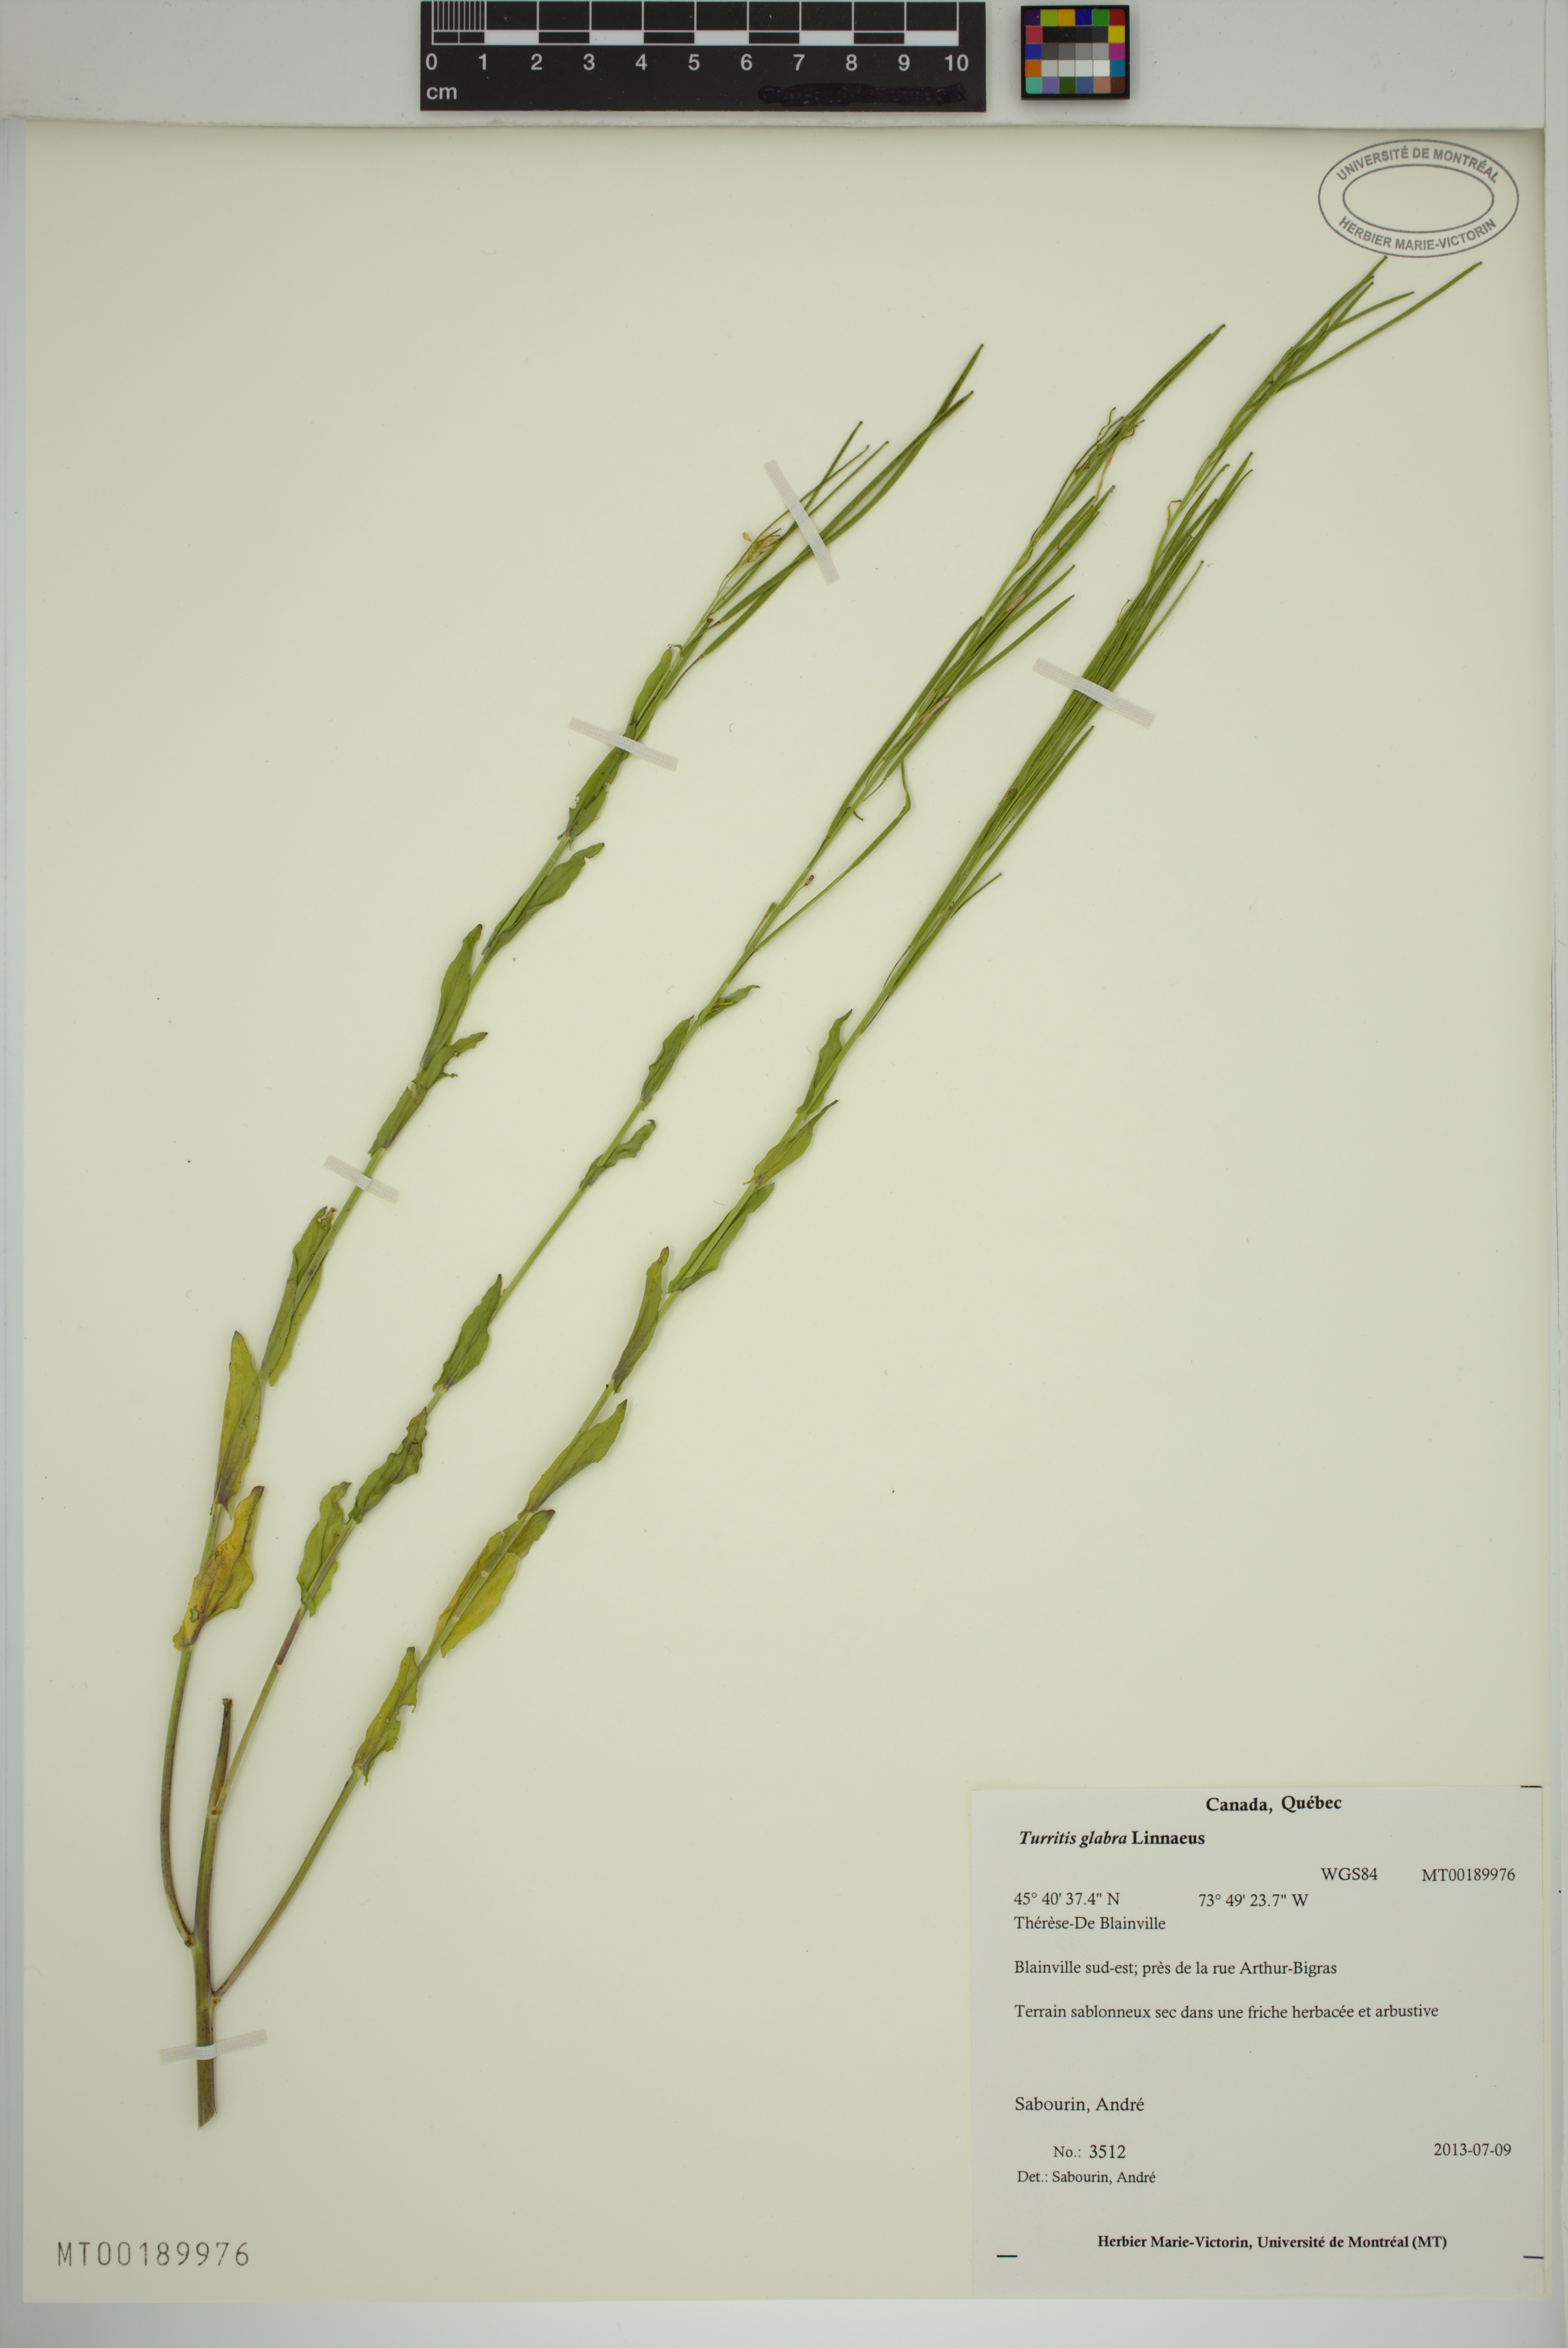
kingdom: Plantae
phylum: Tracheophyta
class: Magnoliopsida
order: Brassicales
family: Brassicaceae
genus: Turritis
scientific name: Turritis glabra
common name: Tower rockcress
